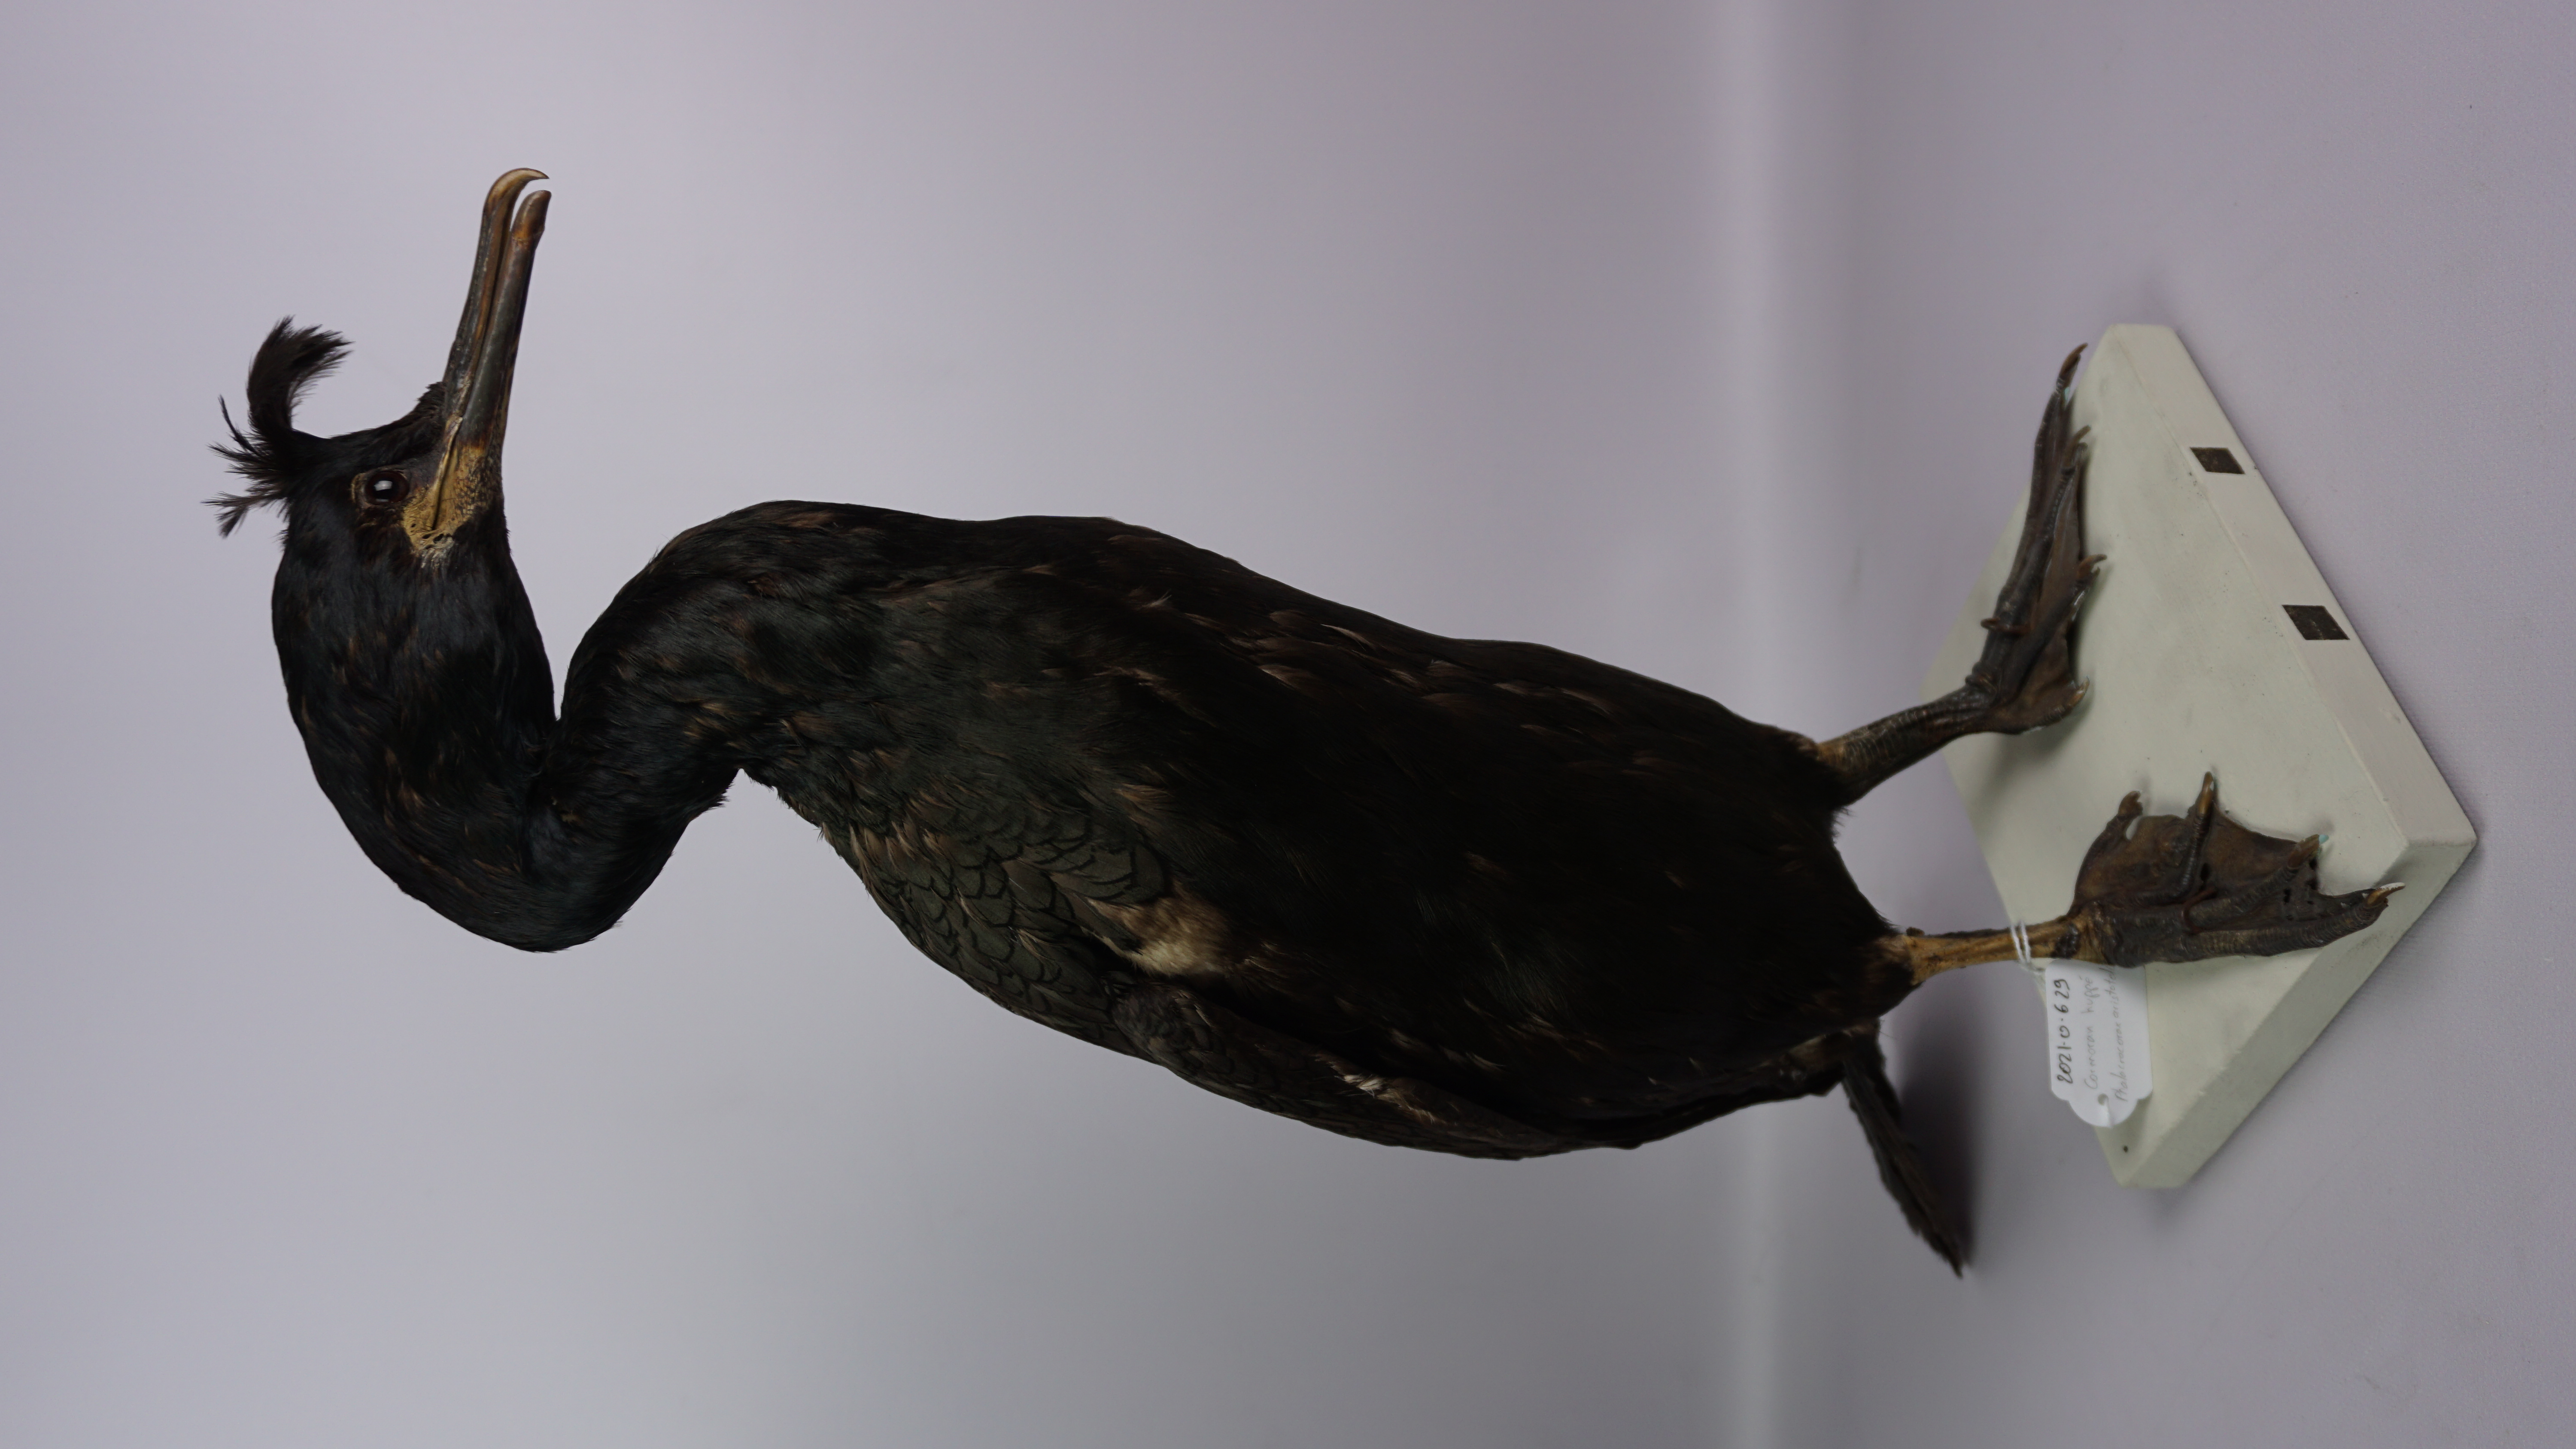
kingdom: Animalia
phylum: Chordata
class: Aves
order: Suliformes
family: Phalacrocoracidae
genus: Phalacrocorax
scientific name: Phalacrocorax aristotelis
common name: European shag
